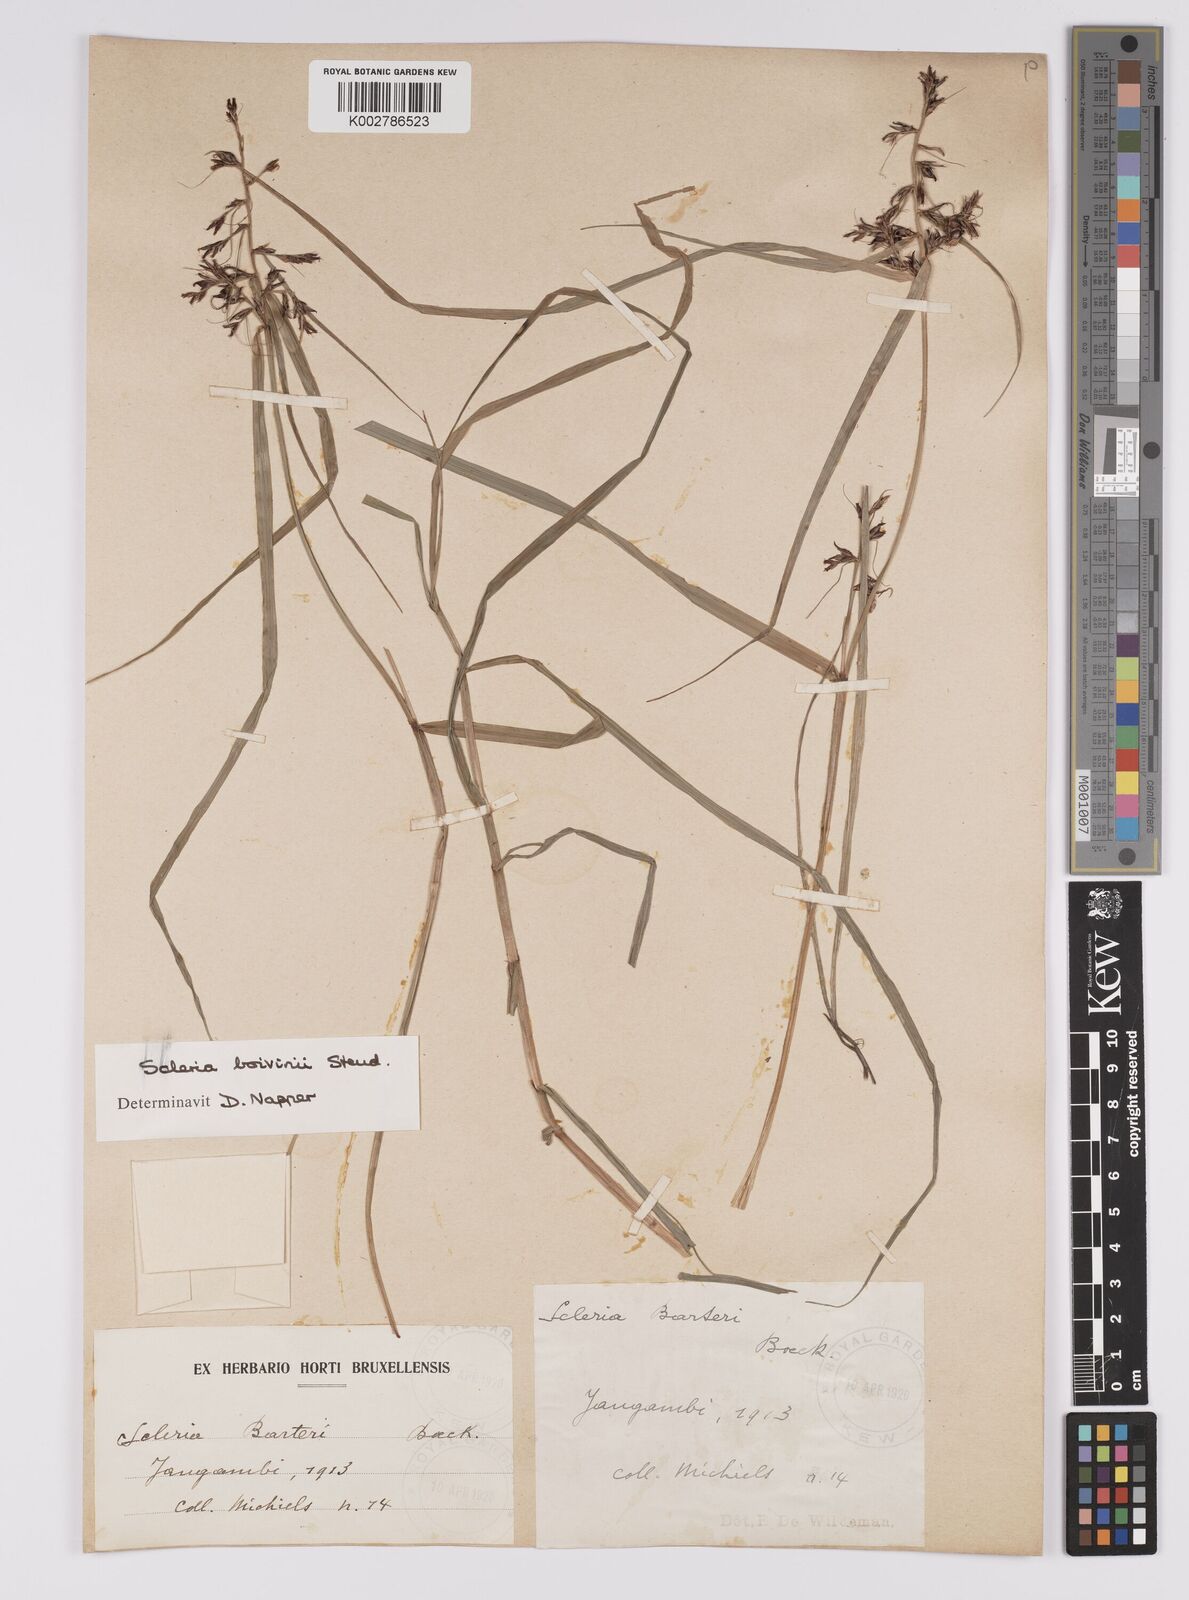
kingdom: Plantae
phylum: Tracheophyta
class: Liliopsida
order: Poales
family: Cyperaceae
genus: Scleria
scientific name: Scleria boivinii
